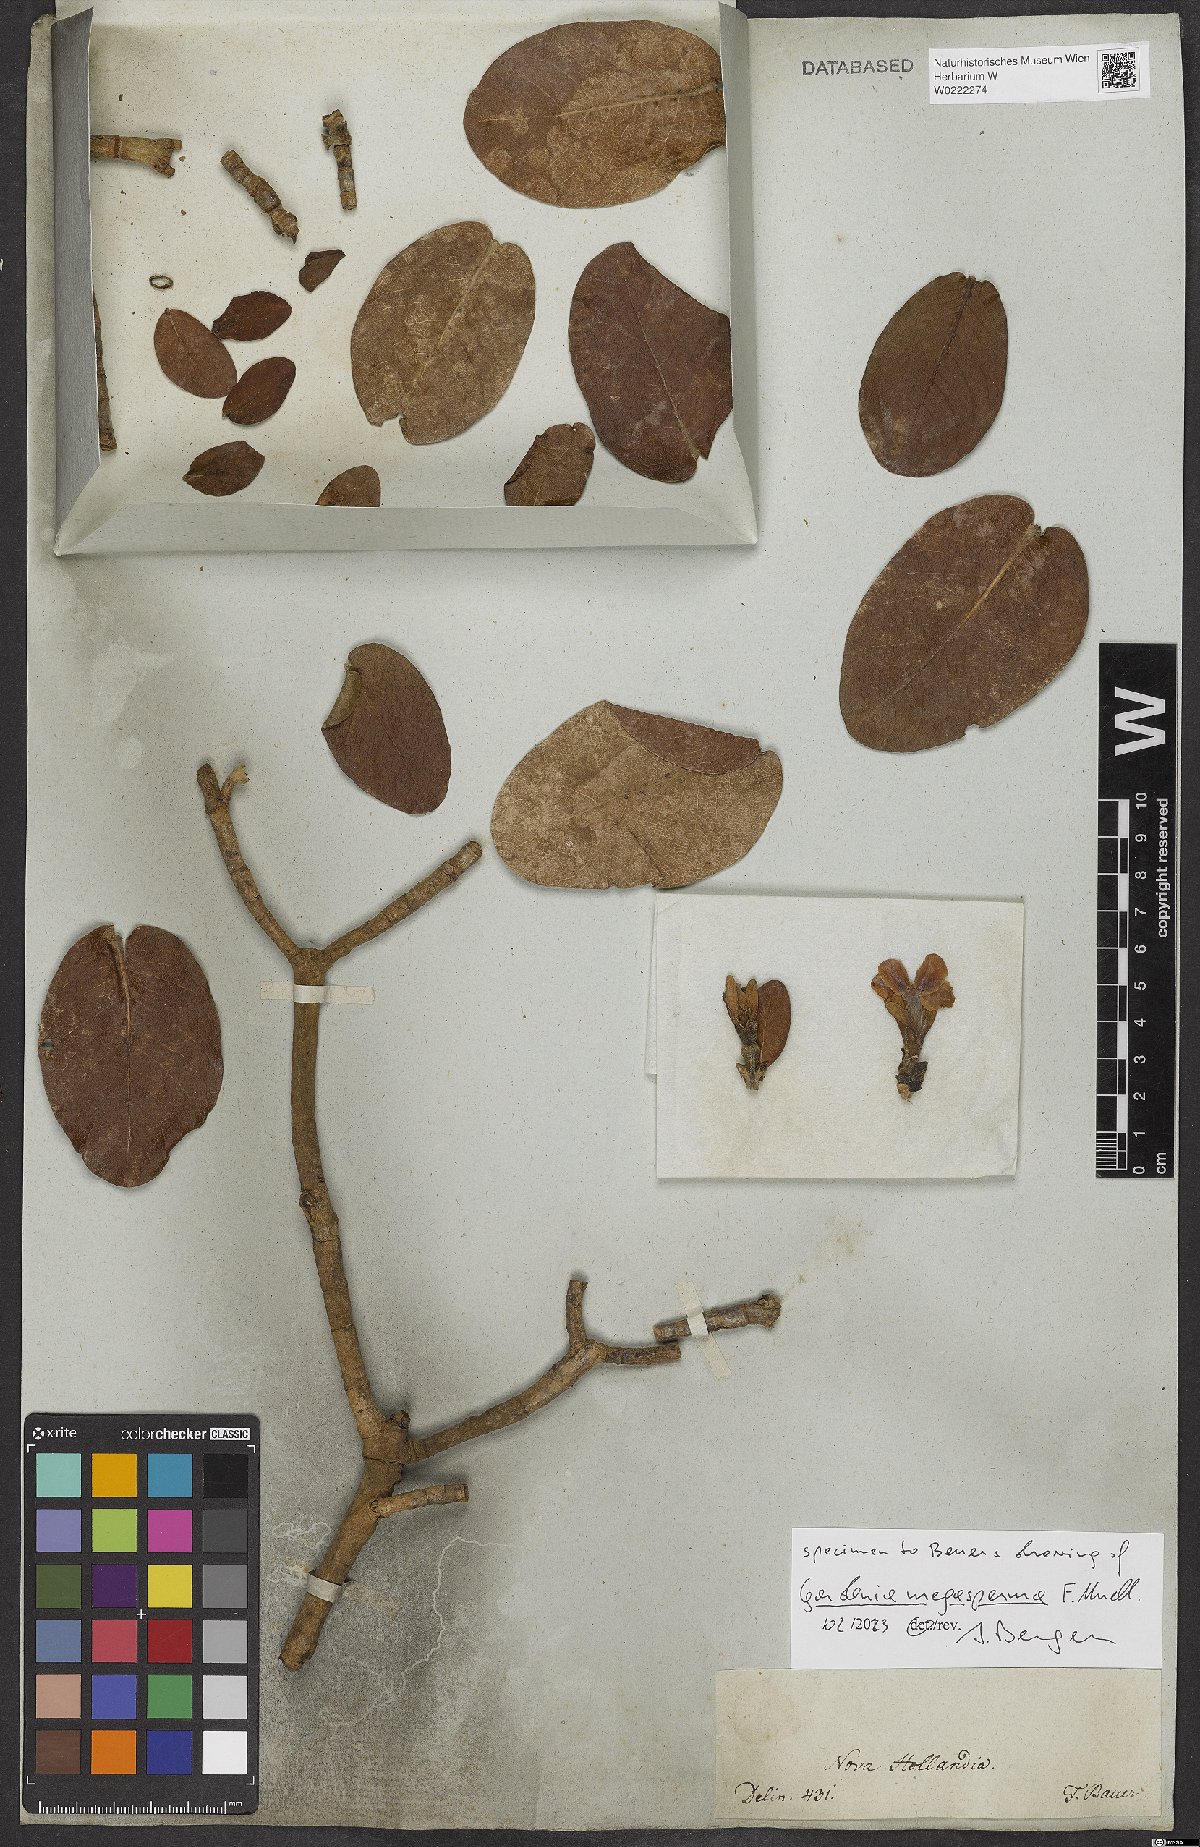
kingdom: Plantae
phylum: Tracheophyta
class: Magnoliopsida
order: Gentianales
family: Rubiaceae
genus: Gardenia
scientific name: Gardenia megasperma
